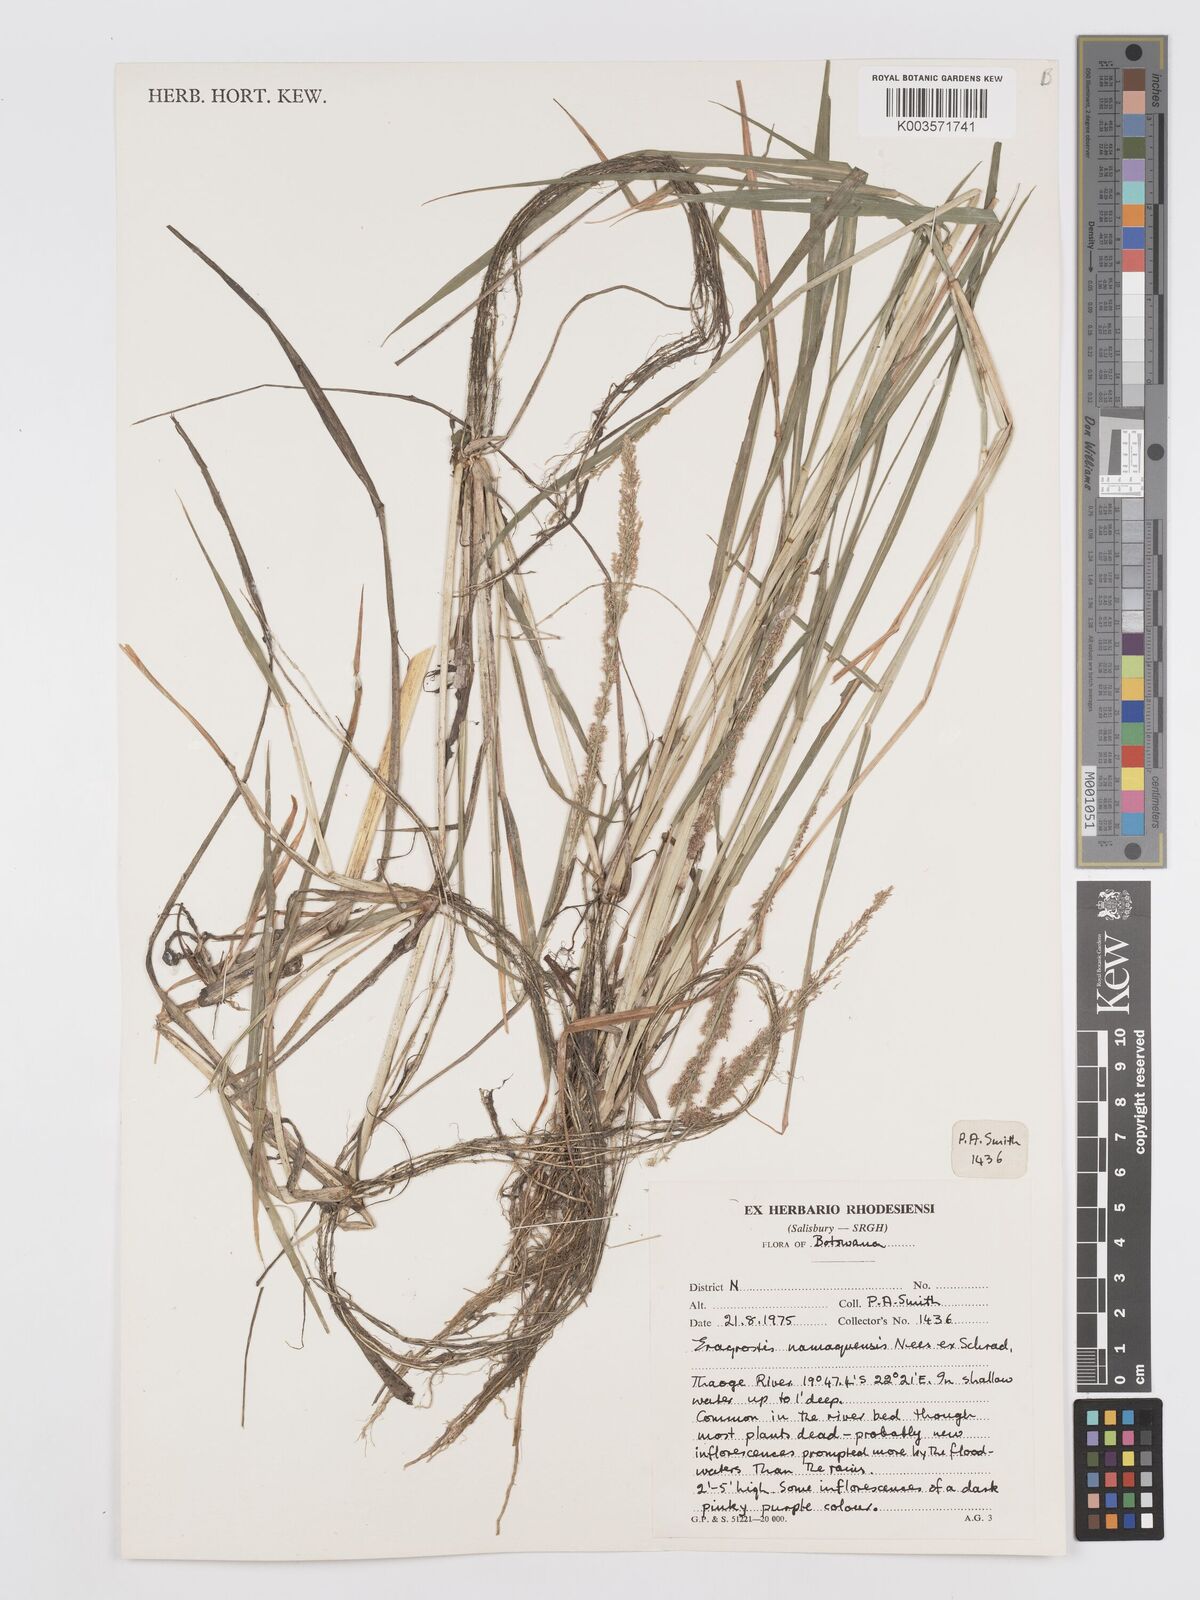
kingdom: Plantae
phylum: Tracheophyta
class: Liliopsida
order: Poales
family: Poaceae
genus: Eragrostis
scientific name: Eragrostis japonica
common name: Pond lovegrass
